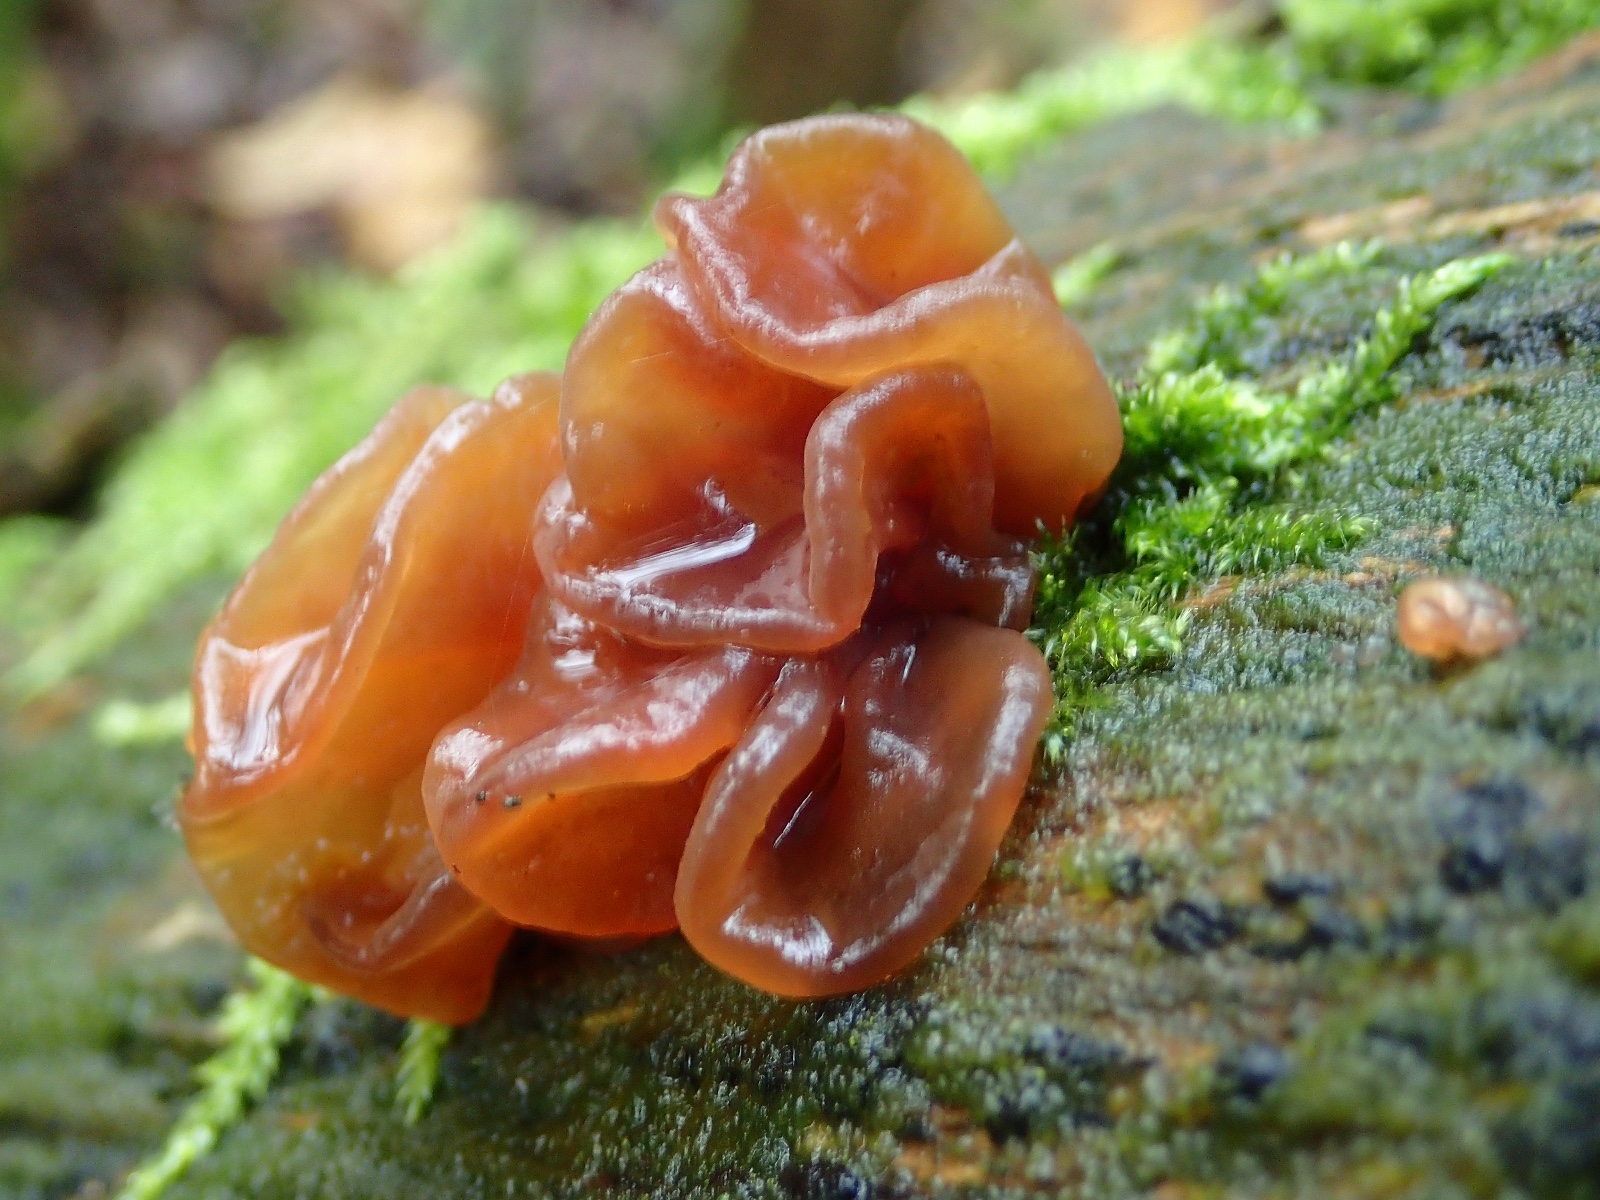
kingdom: Fungi
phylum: Basidiomycota
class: Tremellomycetes
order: Tremellales
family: Tremellaceae
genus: Phaeotremella
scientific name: Phaeotremella frondosa
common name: kæmpe-bævresvamp
